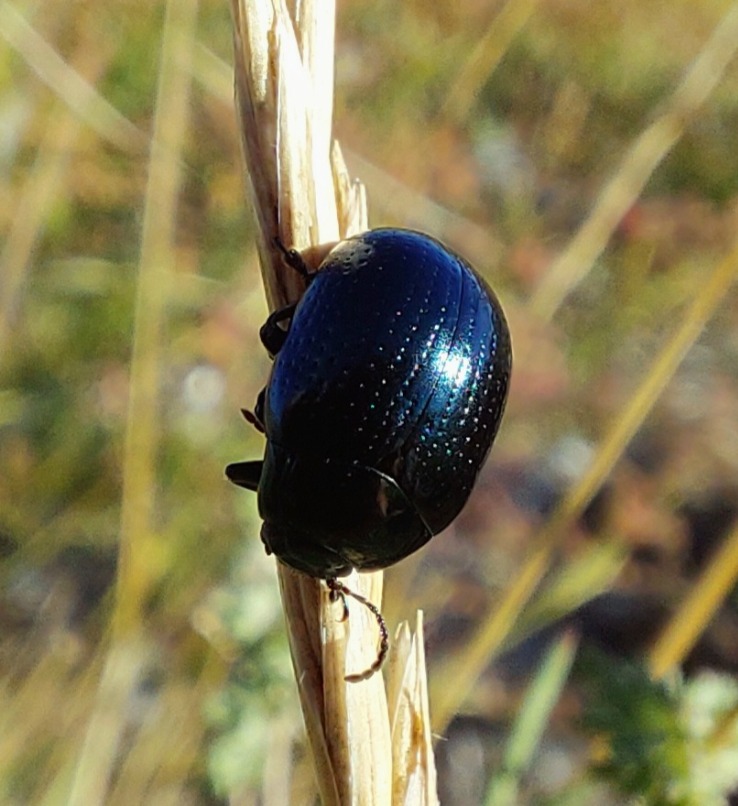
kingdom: Animalia
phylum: Arthropoda
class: Insecta
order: Coleoptera
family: Chrysomelidae
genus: Chrysolina
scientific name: Chrysolina oricalcia
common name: Rækkepunkteret guldbille
